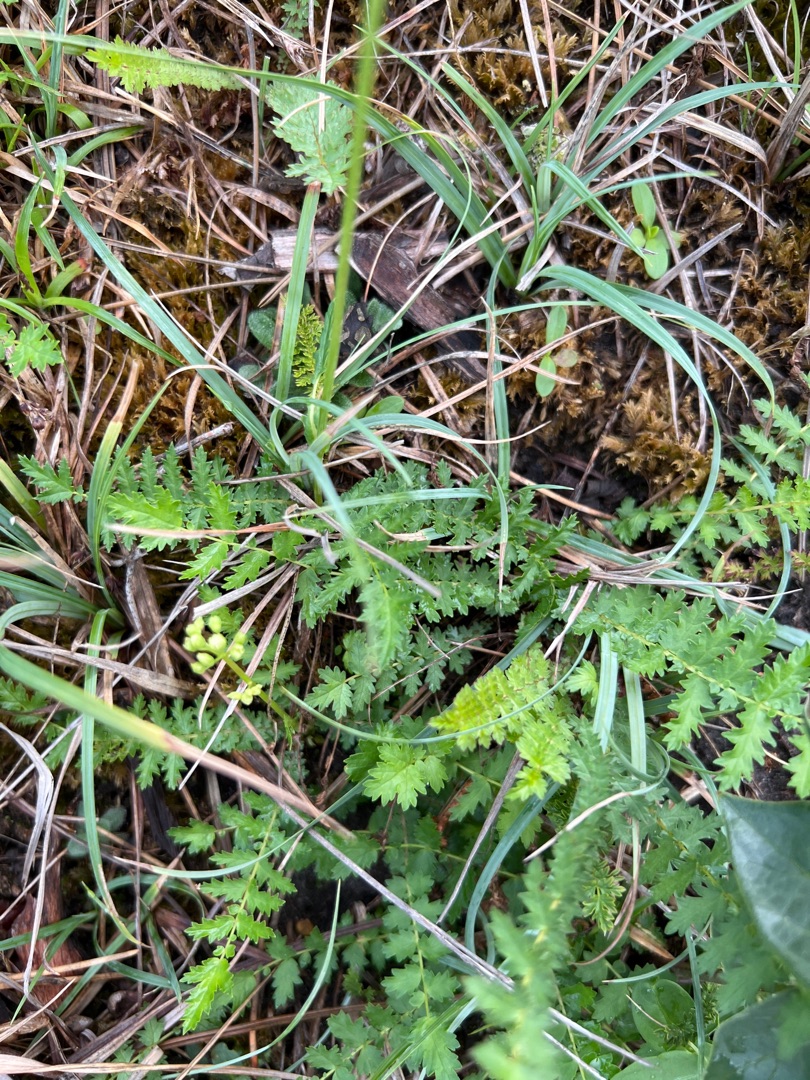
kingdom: Plantae
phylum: Tracheophyta
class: Magnoliopsida
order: Rosales
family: Rosaceae
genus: Filipendula
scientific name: Filipendula vulgaris
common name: Knoldet mjødurt
